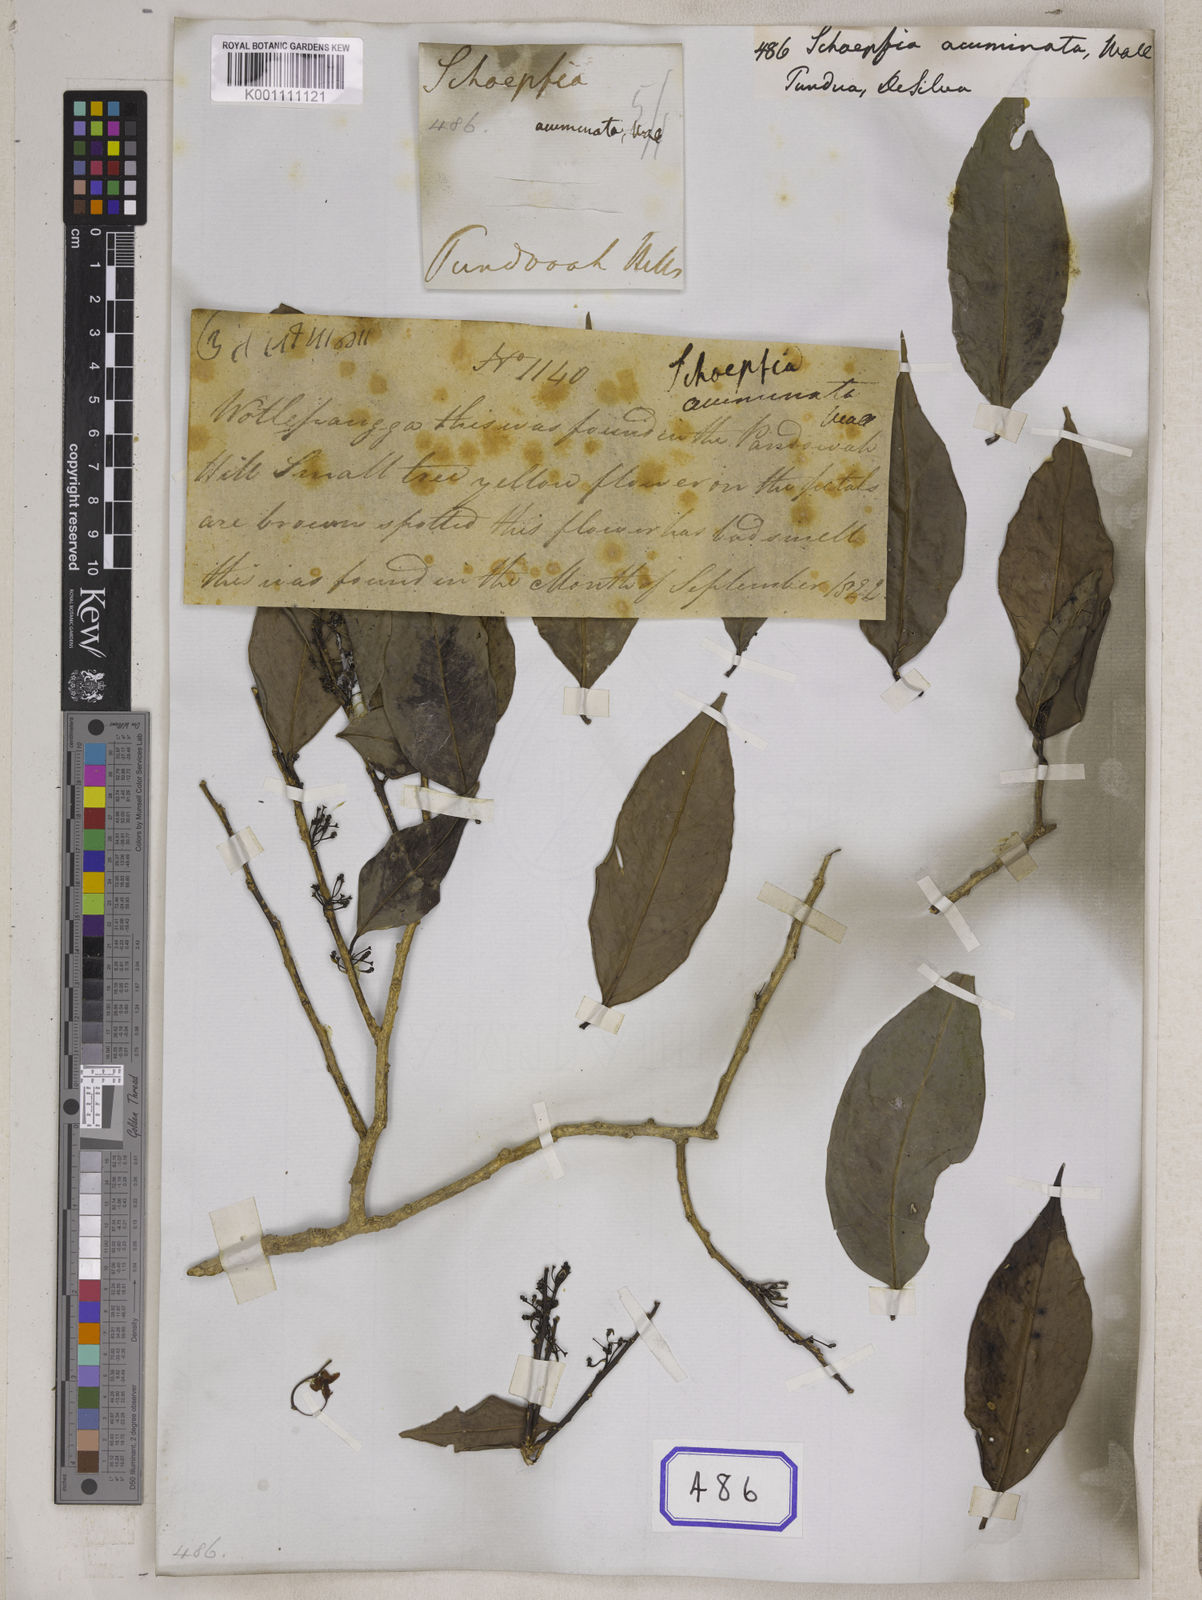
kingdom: Plantae
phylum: Tracheophyta
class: Magnoliopsida
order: Santalales
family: Schoepfiaceae
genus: Schoepfia
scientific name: Schoepfia
